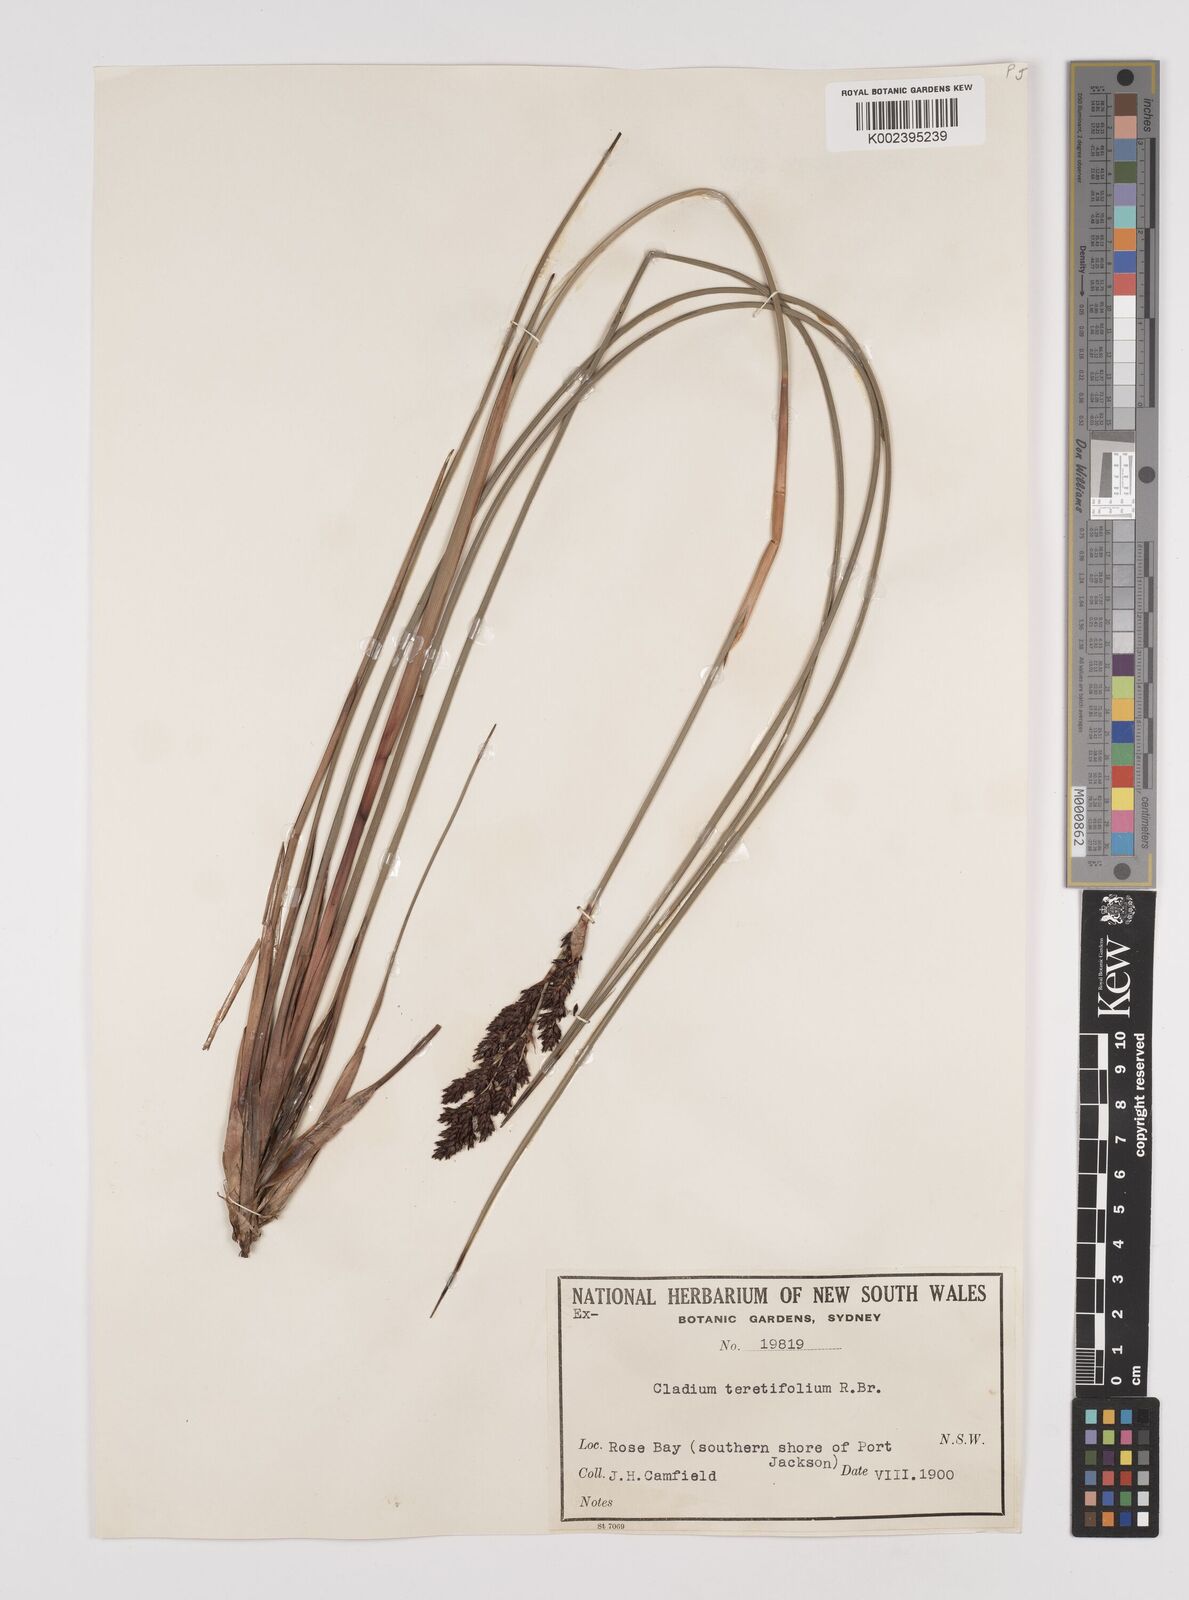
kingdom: Plantae
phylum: Tracheophyta
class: Liliopsida
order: Poales
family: Cyperaceae
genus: Machaerina
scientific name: Machaerina teretifolia
